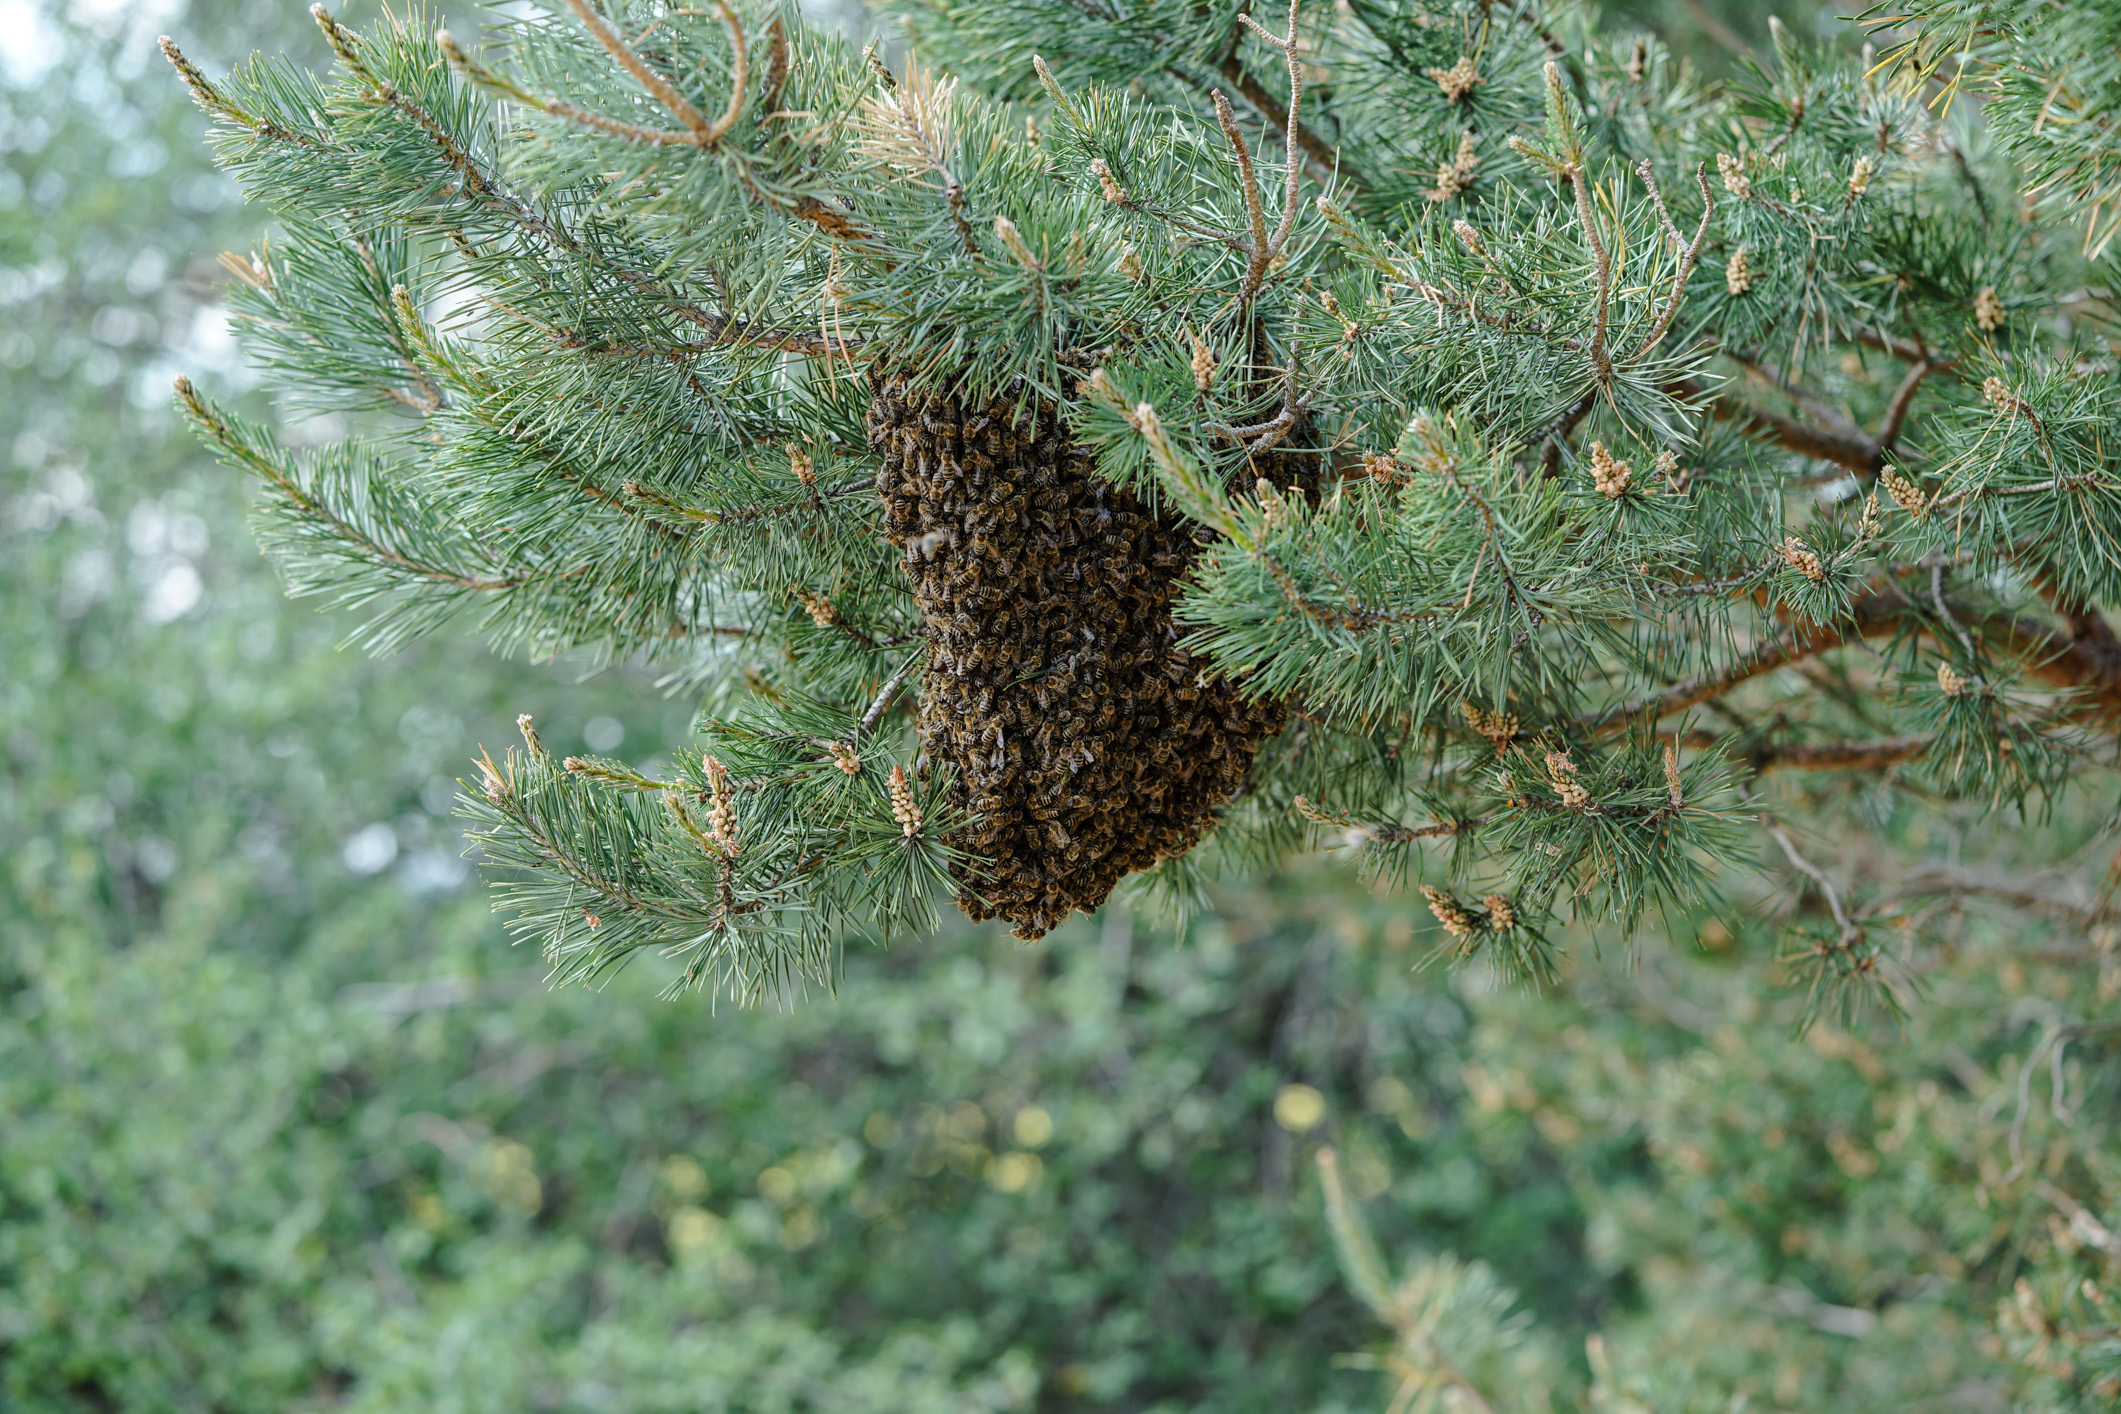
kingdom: Animalia
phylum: Arthropoda
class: Insecta
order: Hymenoptera
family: Apidae
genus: Apis
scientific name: Apis mellifera
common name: Honey bee
